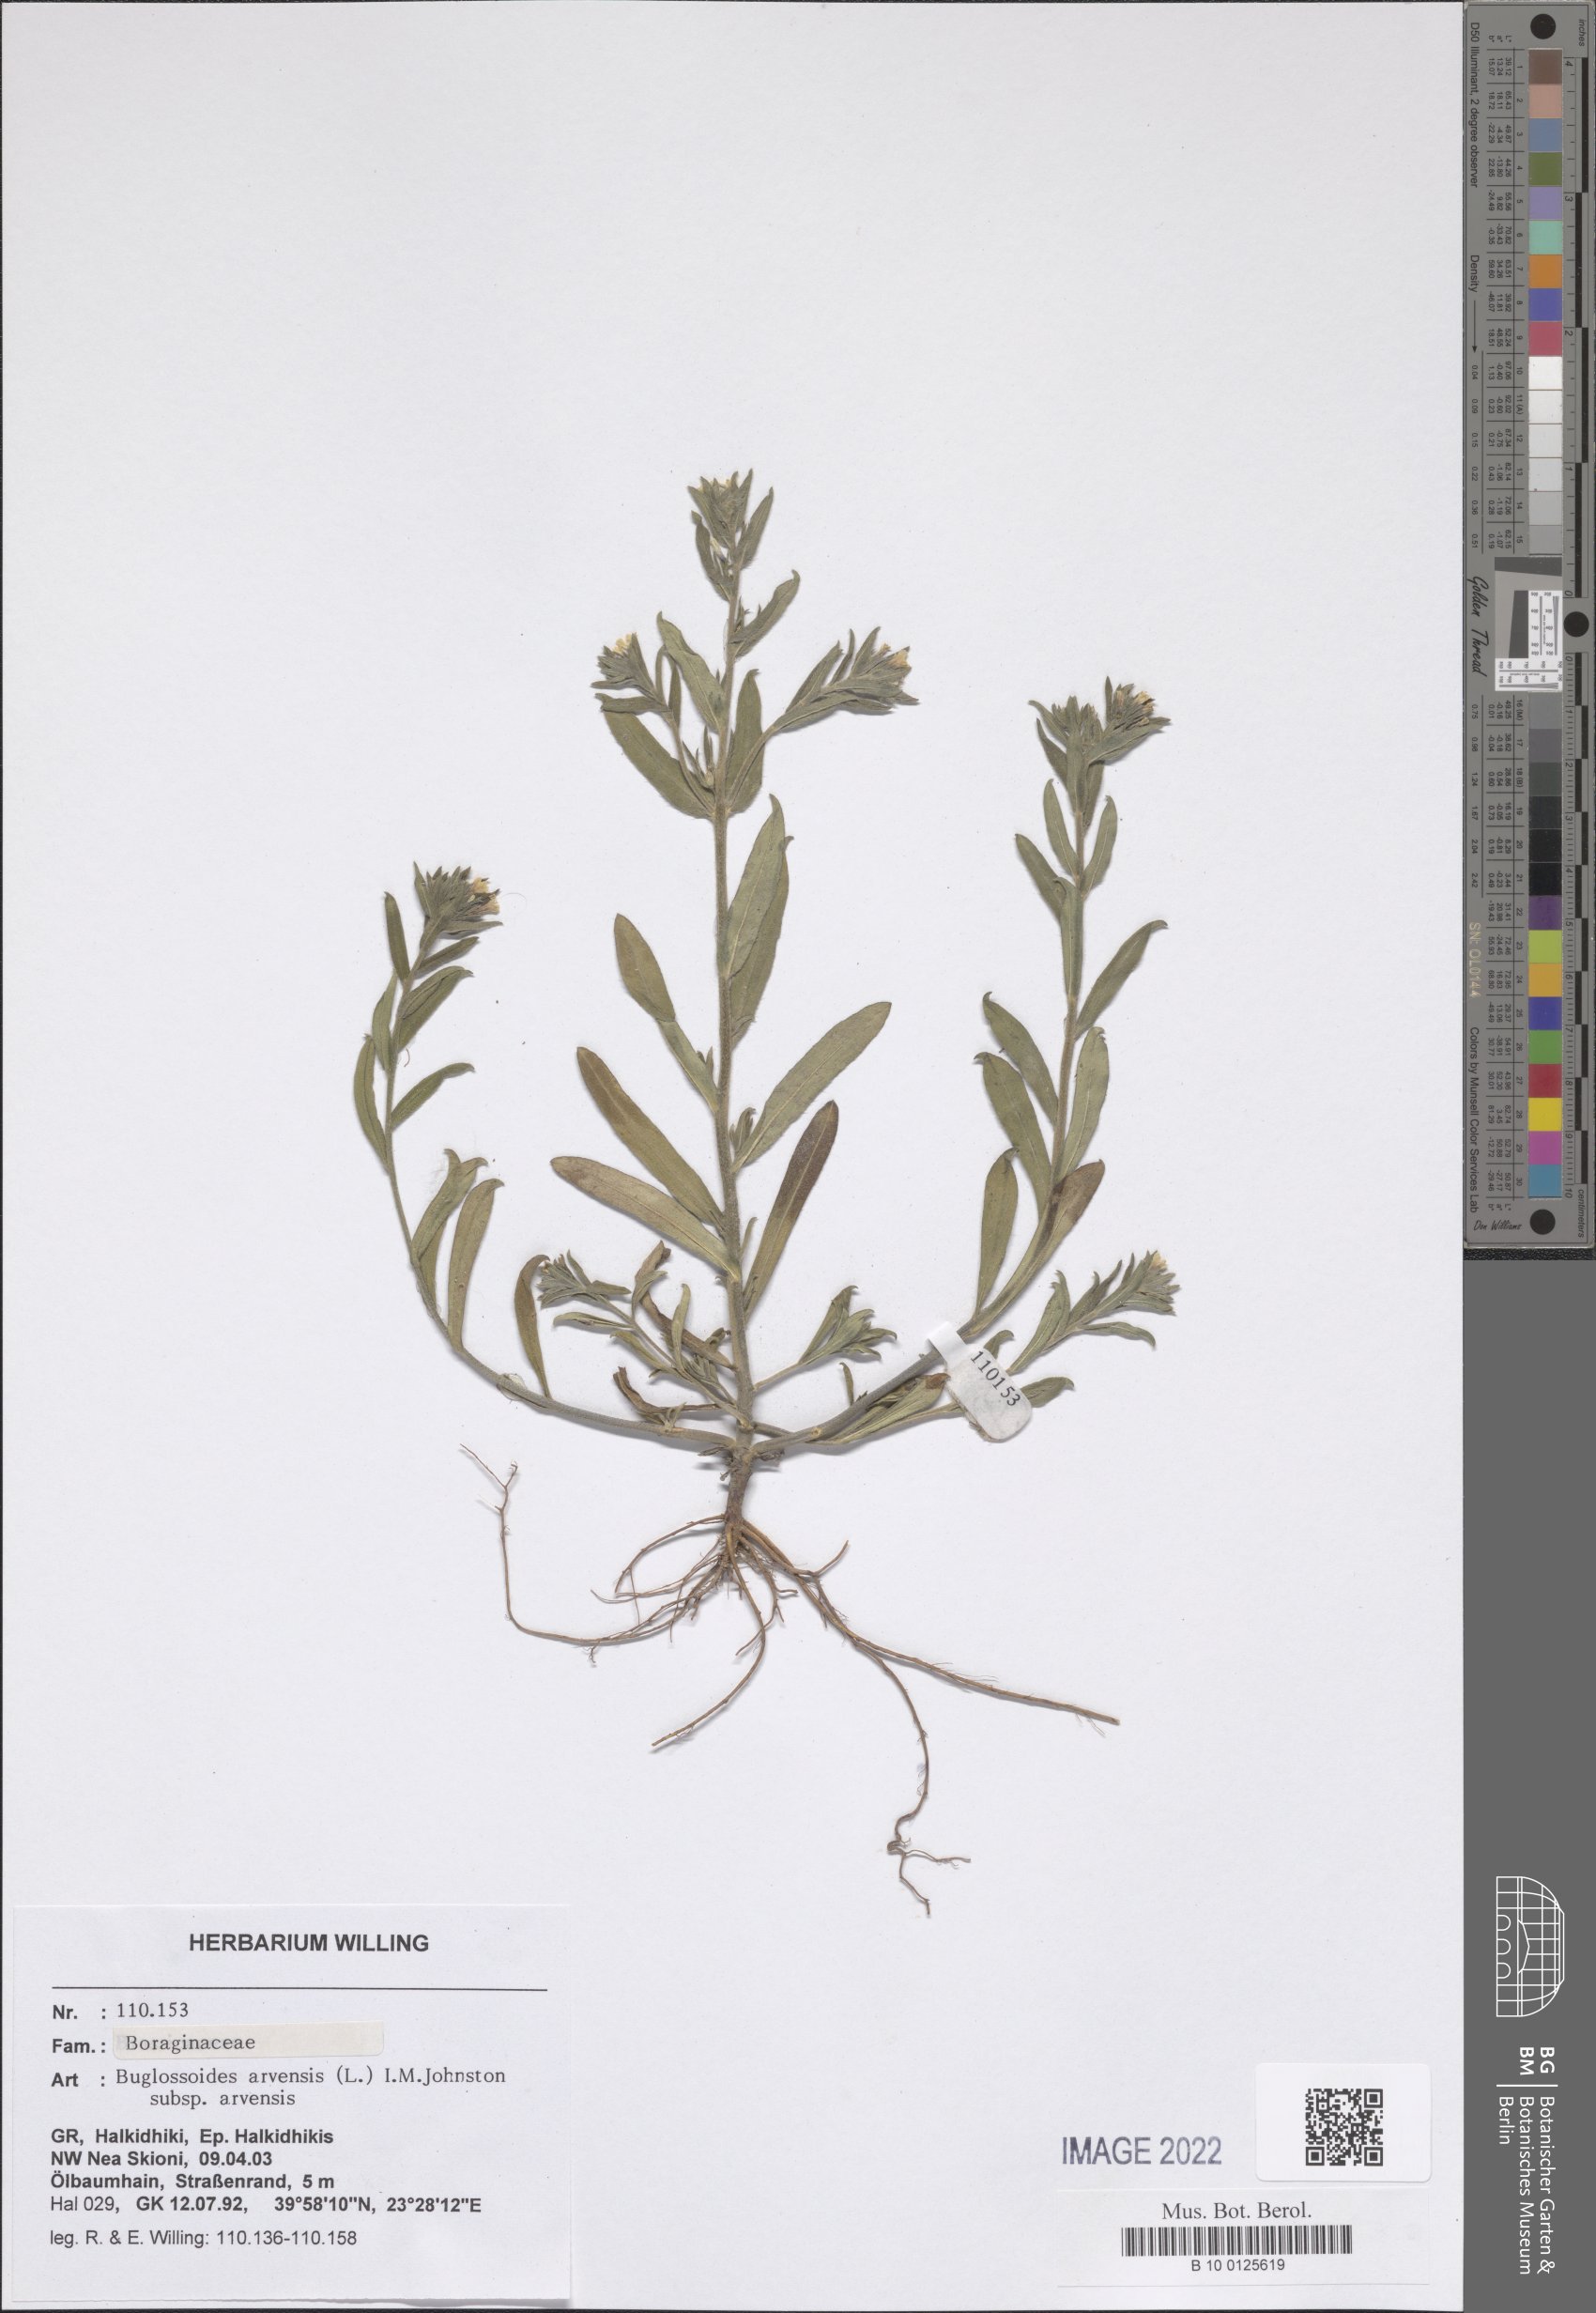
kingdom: Plantae
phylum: Tracheophyta
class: Magnoliopsida
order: Boraginales
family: Boraginaceae
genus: Buglossoides
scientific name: Buglossoides arvensis
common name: Corn gromwell
